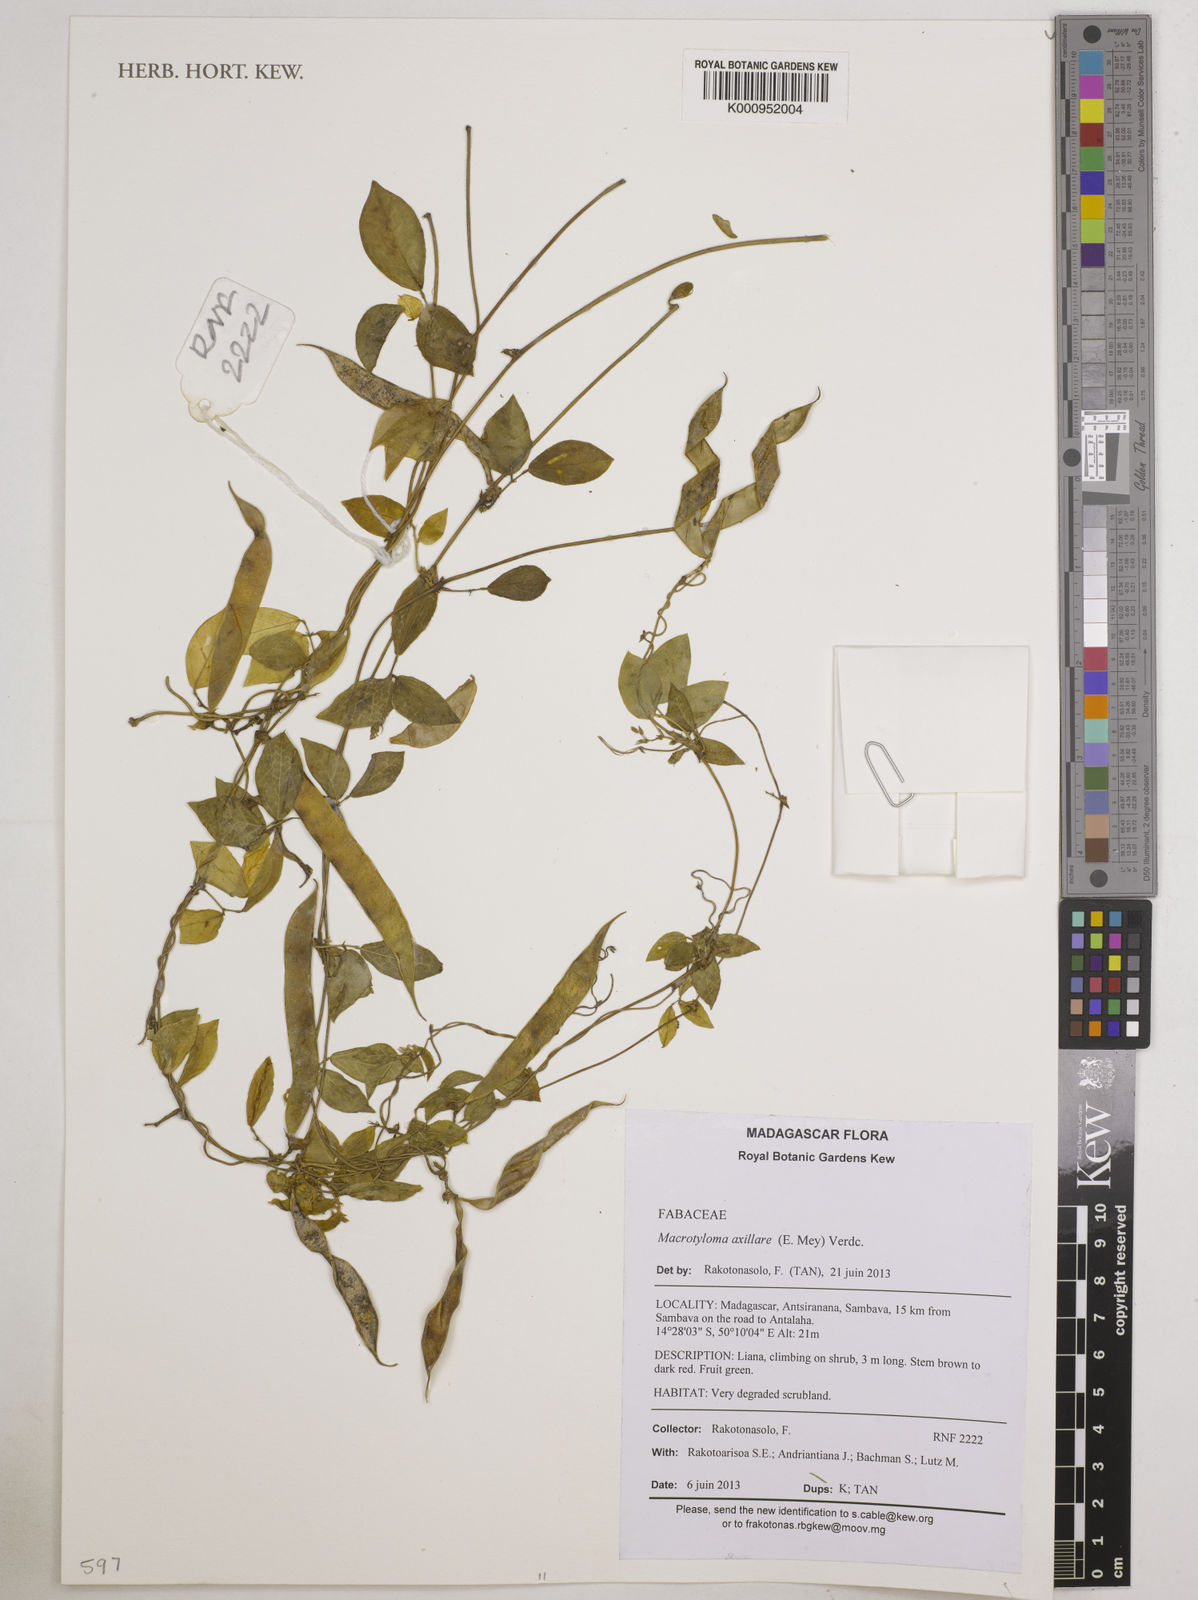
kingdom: Plantae
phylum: Tracheophyta
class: Magnoliopsida
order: Fabales
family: Fabaceae
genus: Macrotyloma
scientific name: Macrotyloma axillare
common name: Perennial horsegram
